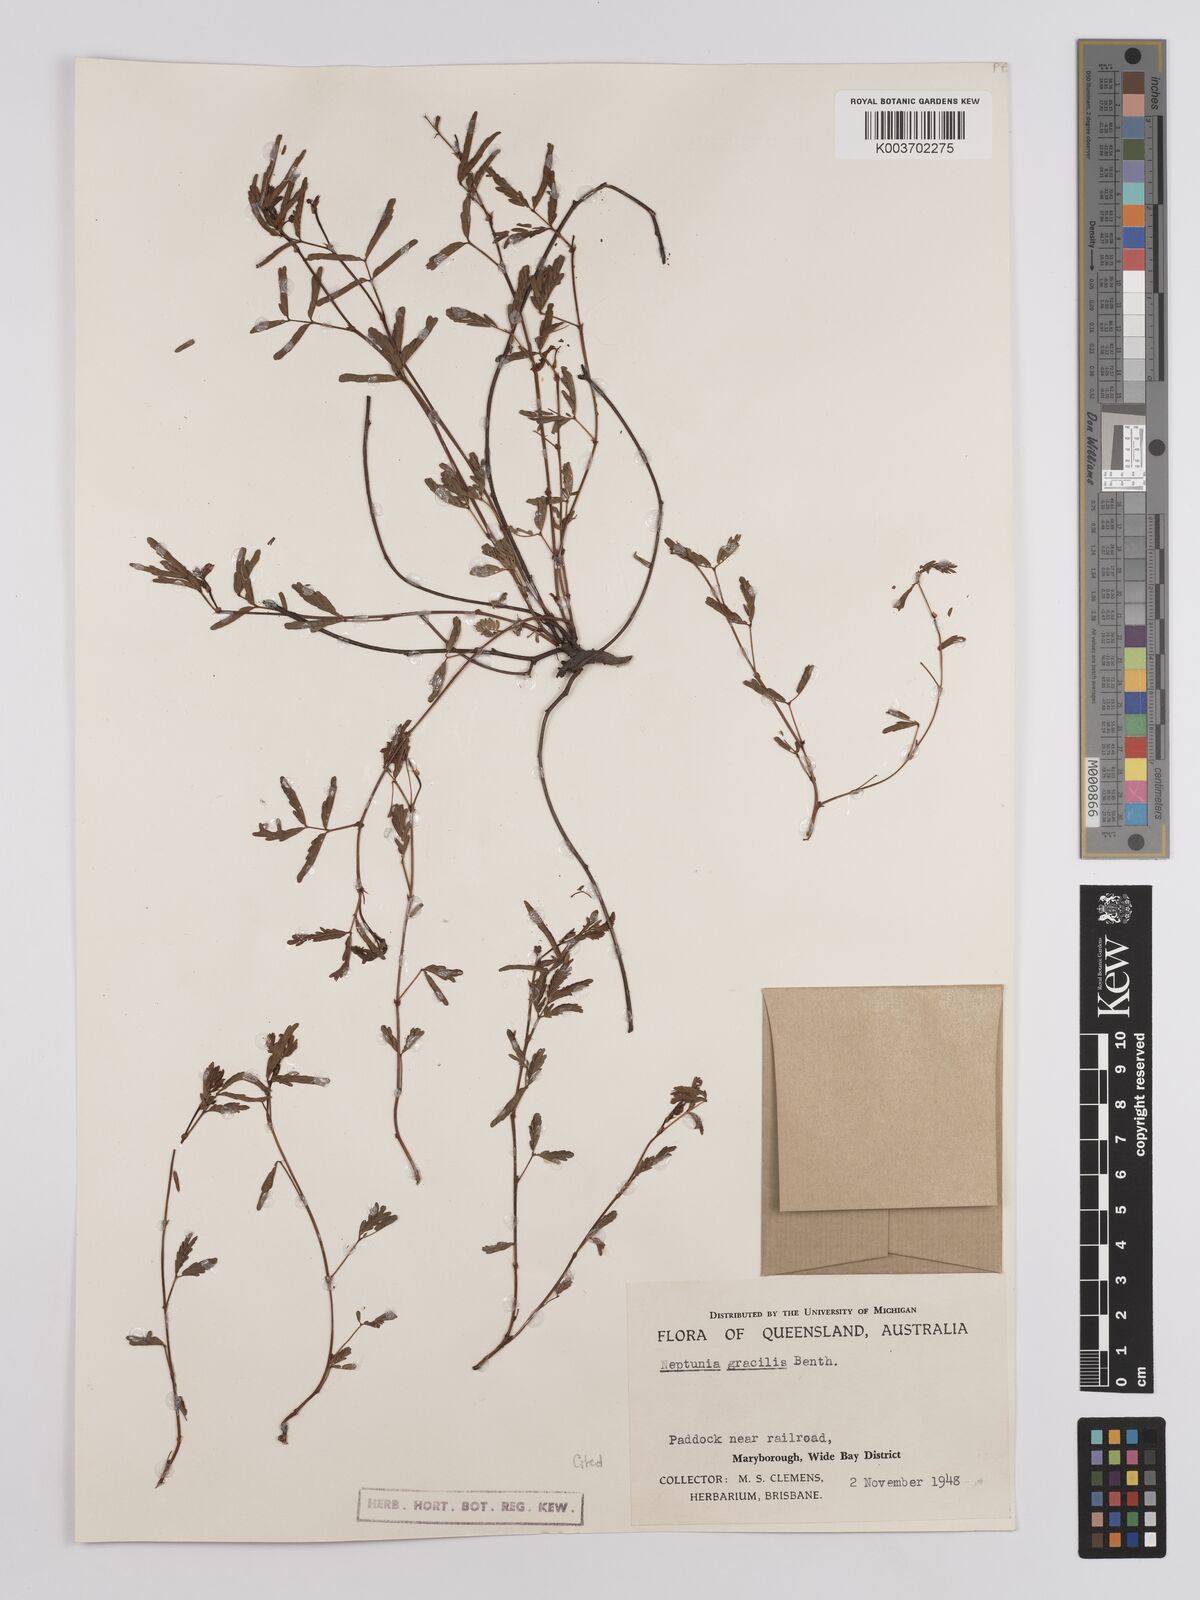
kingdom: Plantae
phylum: Tracheophyta
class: Magnoliopsida
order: Fabales
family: Fabaceae
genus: Neptunia
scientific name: Neptunia gracilis
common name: Sensitive-plant
